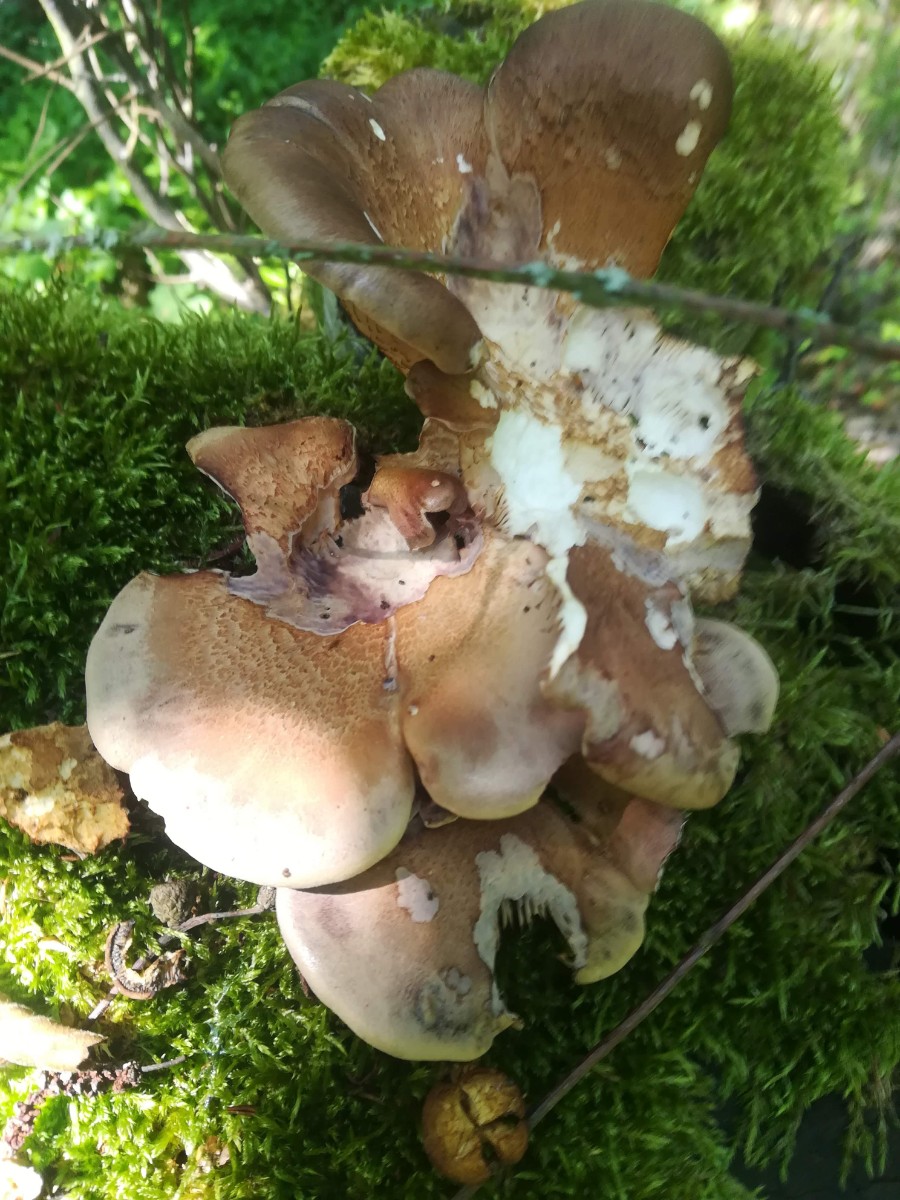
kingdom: Fungi
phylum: Basidiomycota
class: Agaricomycetes
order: Polyporales
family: Panaceae
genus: Panus
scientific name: Panus conchatus
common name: filtstokket læderhat
